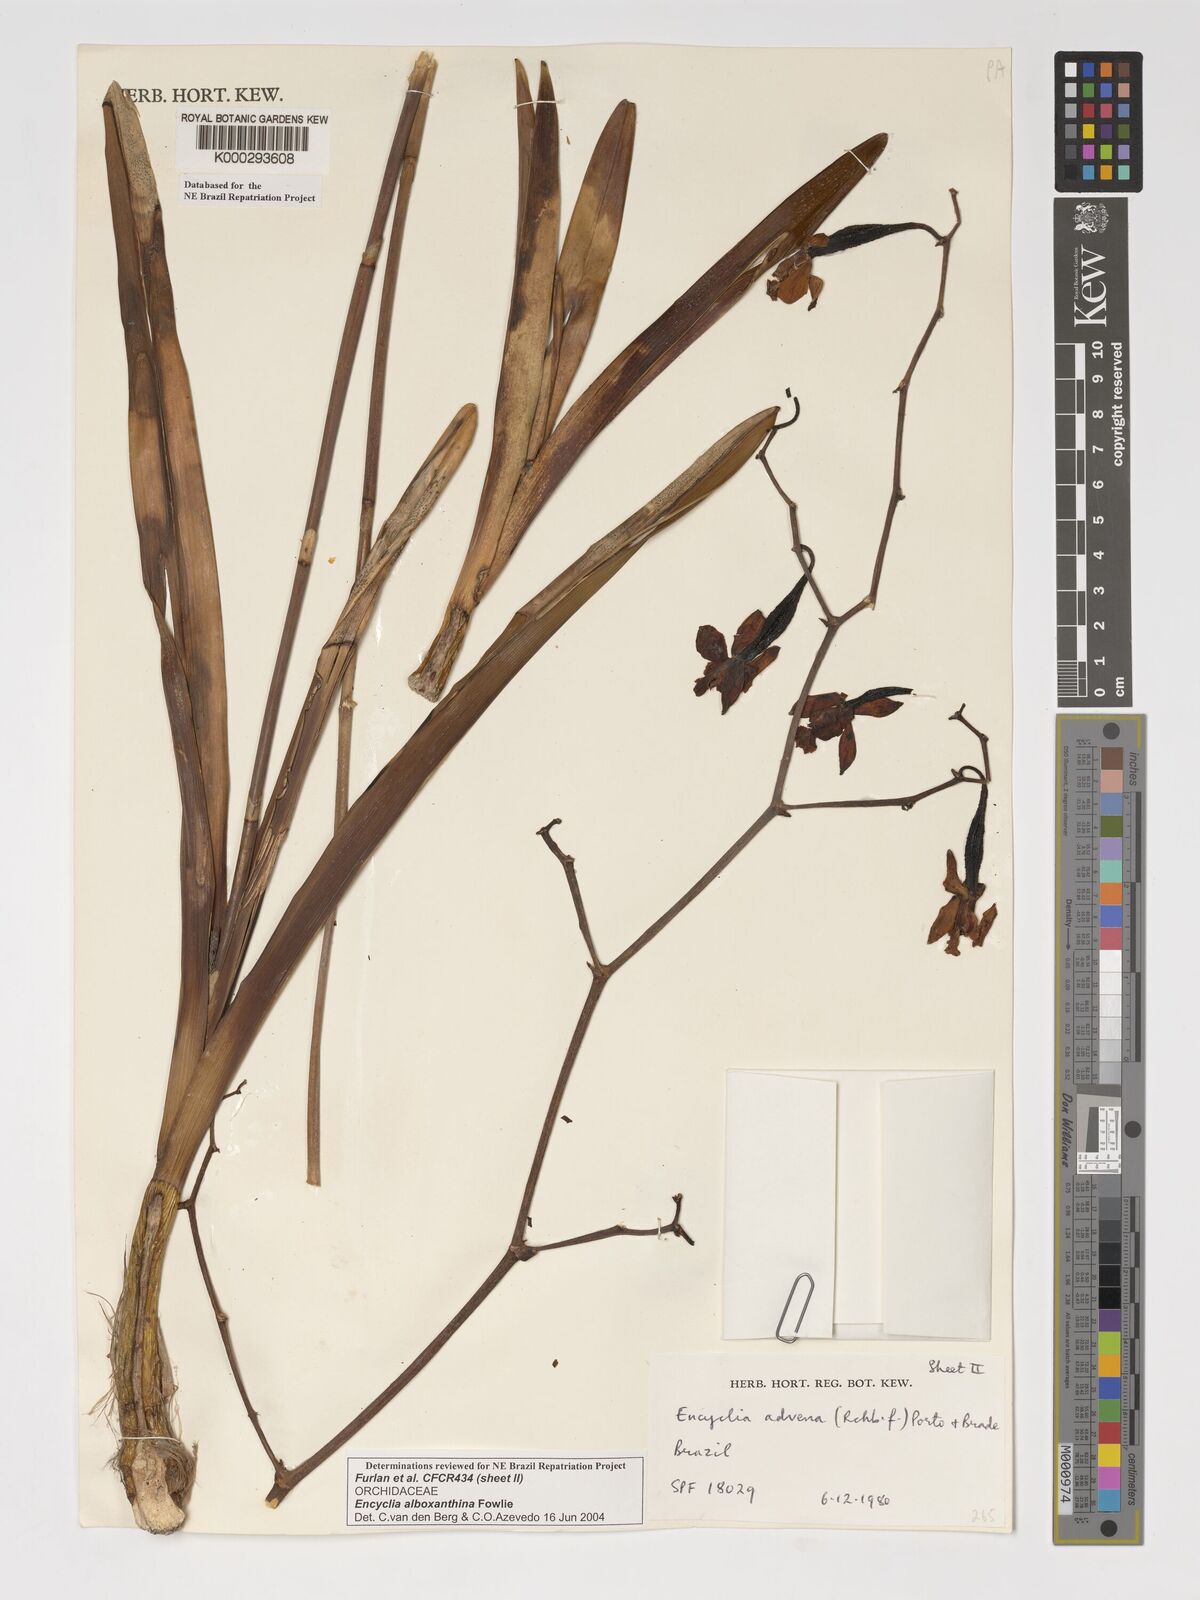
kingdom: Plantae
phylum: Tracheophyta
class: Liliopsida
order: Asparagales
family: Orchidaceae
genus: Encyclia
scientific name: Encyclia alboxanthina
